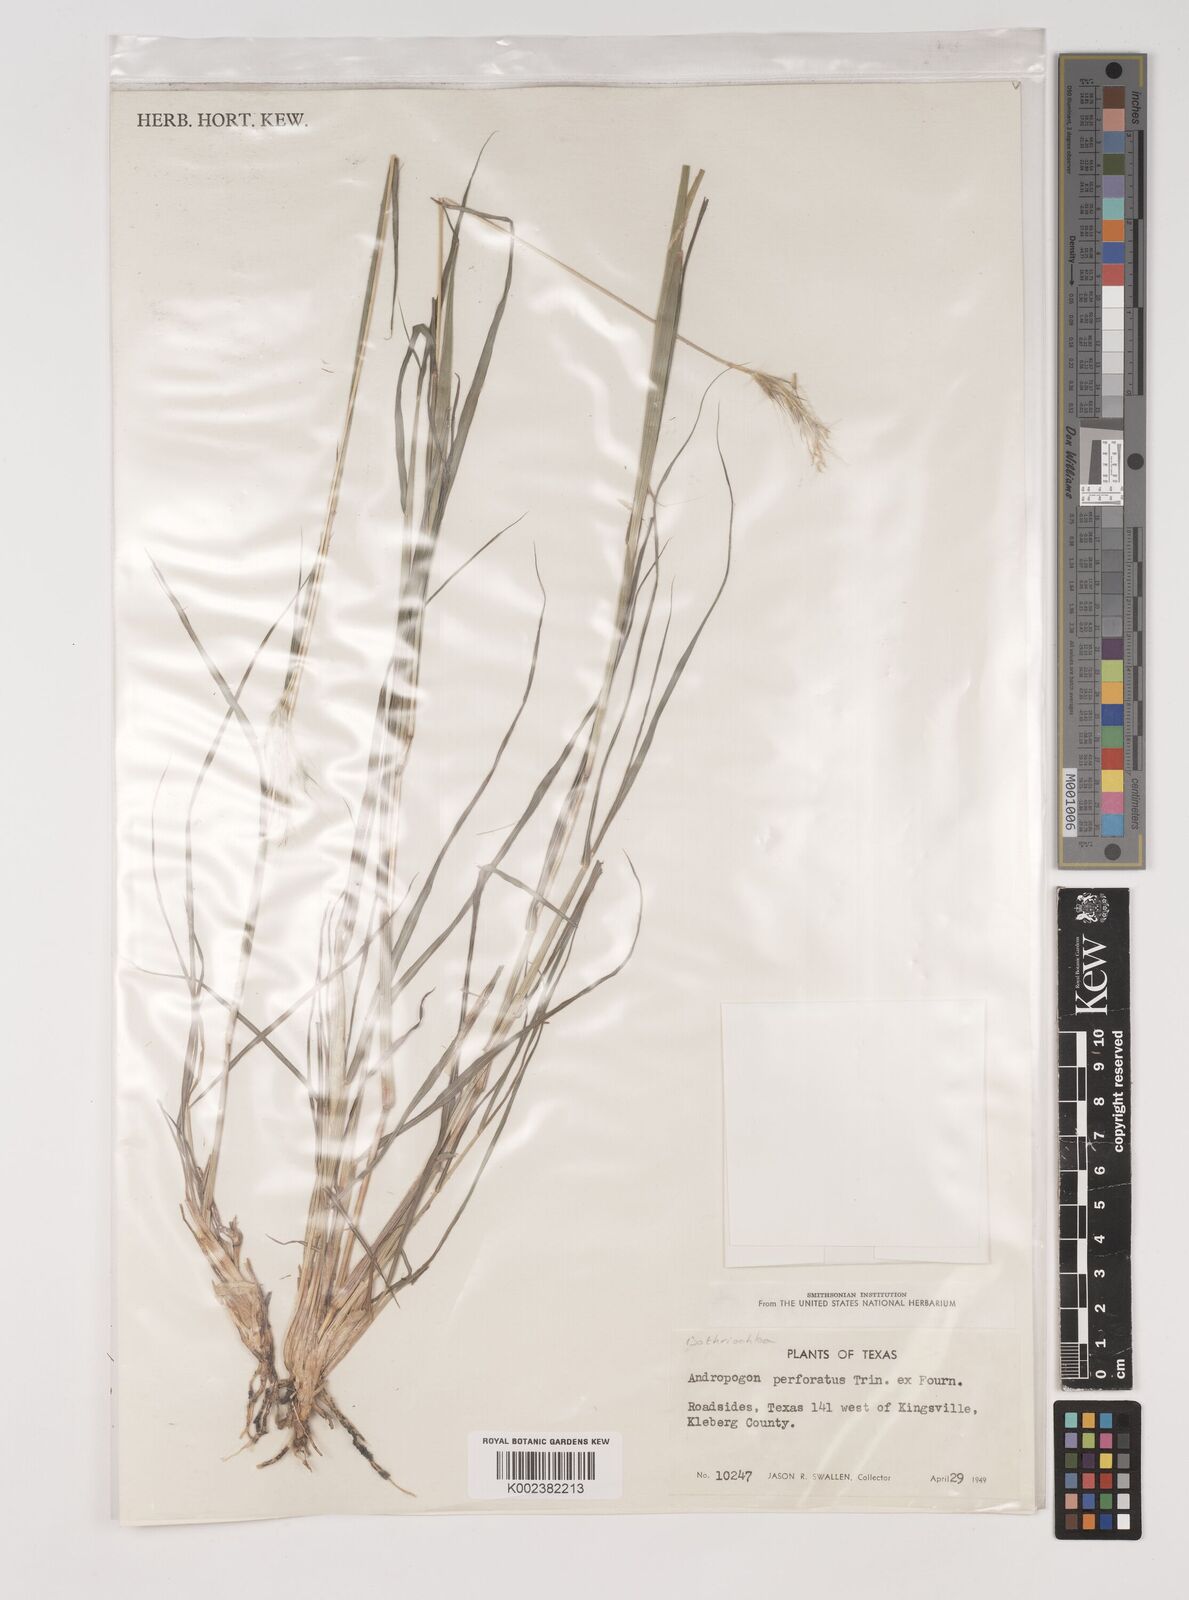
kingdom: Plantae
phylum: Tracheophyta
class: Liliopsida
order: Poales
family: Poaceae
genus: Bothriochloa
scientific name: Bothriochloa ischaemum
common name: Yellow bluestem
